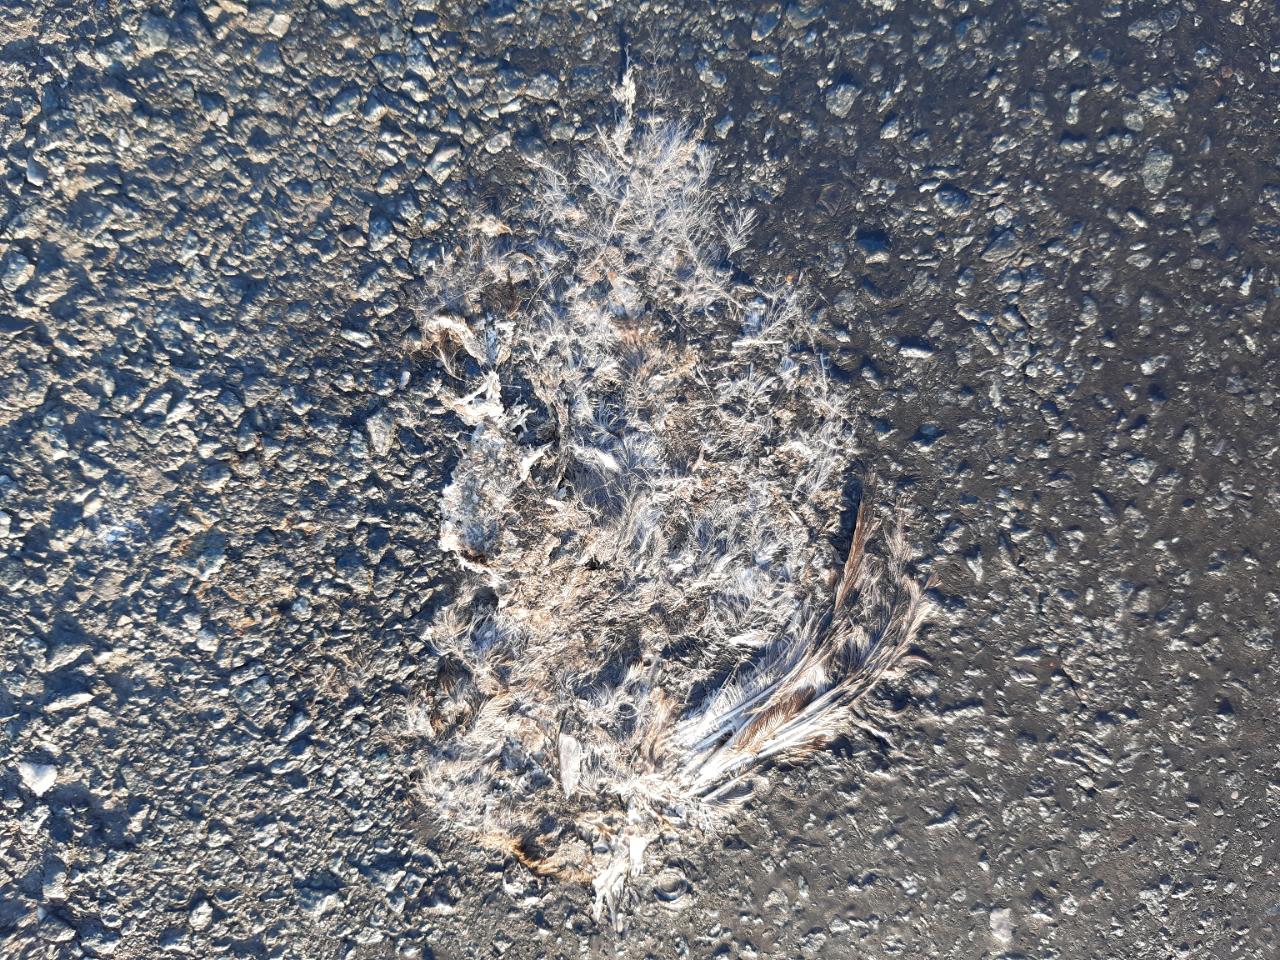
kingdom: Animalia
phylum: Chordata
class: Aves
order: Passeriformes
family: Passeridae
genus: Passer
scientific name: Passer domesticus
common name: House sparrow
